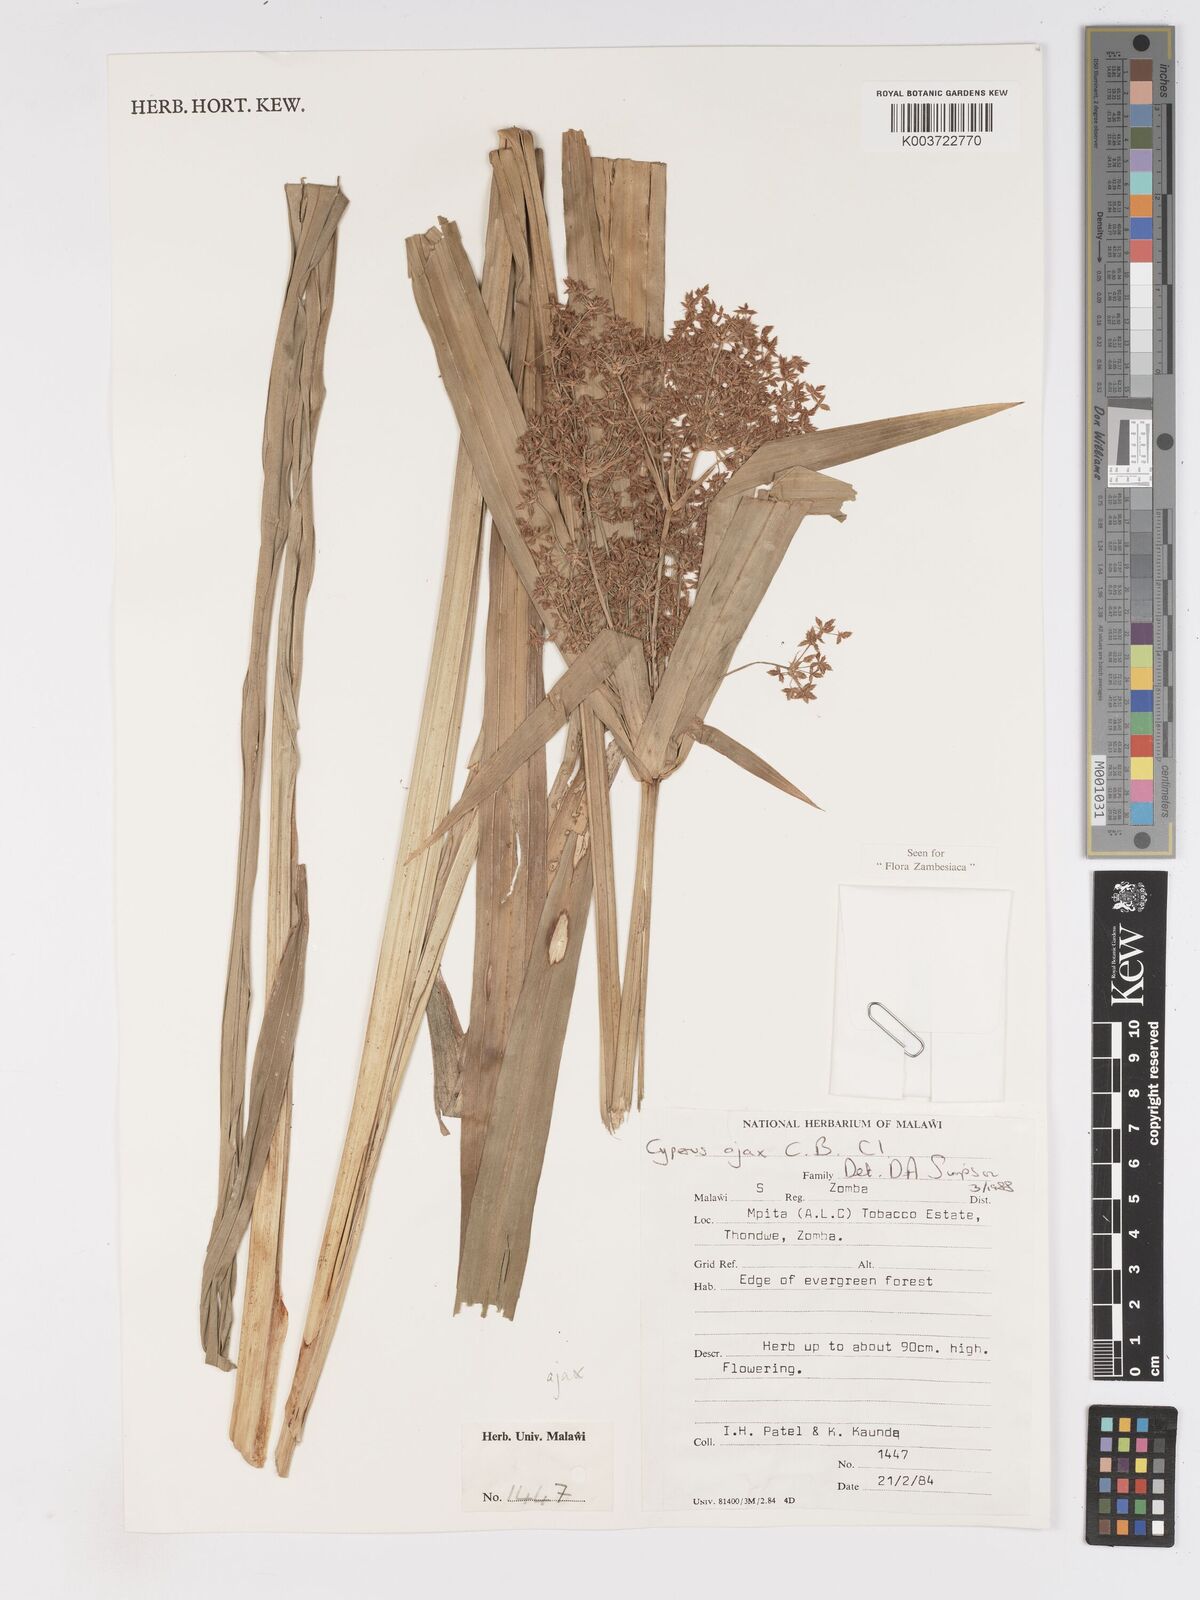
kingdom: Plantae
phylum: Tracheophyta
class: Liliopsida
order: Poales
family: Cyperaceae
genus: Cyperus
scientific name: Cyperus ajax
